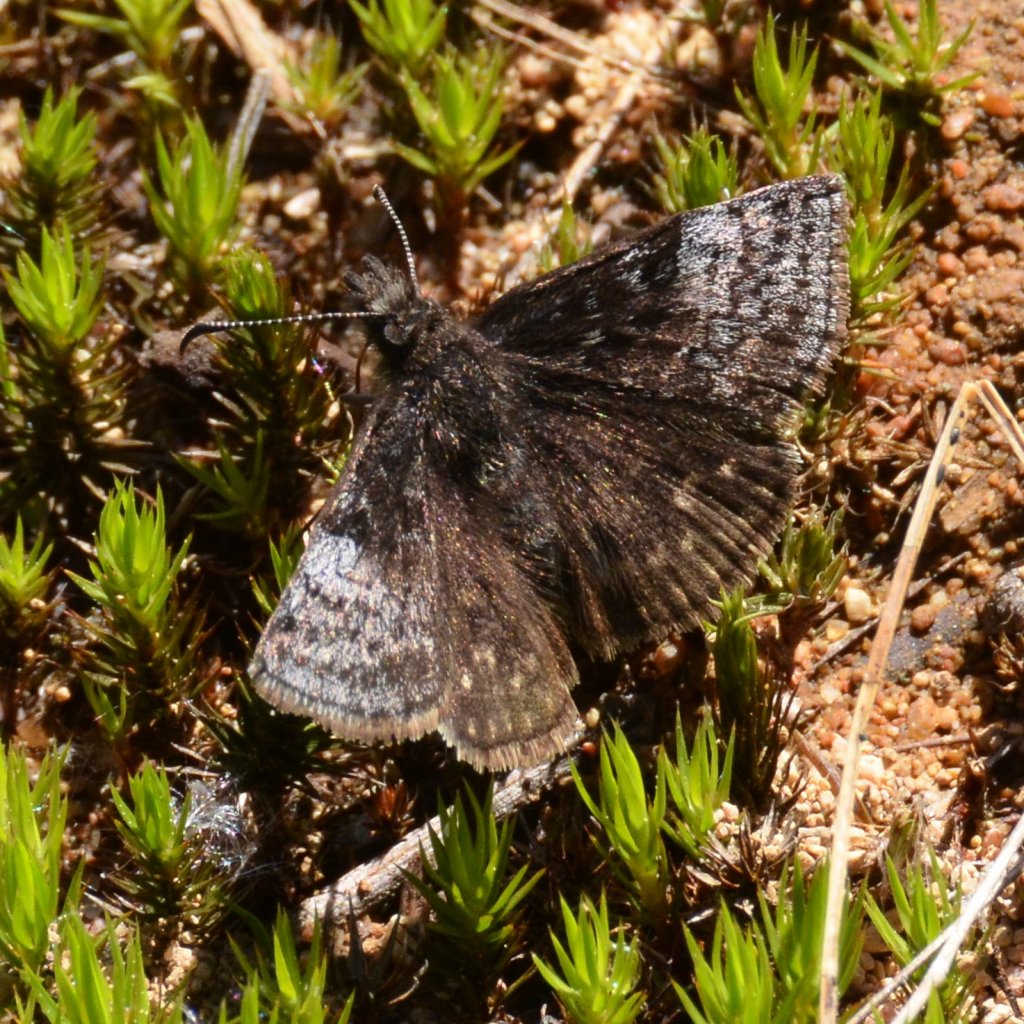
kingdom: Animalia
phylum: Arthropoda
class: Insecta
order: Lepidoptera
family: Hesperiidae
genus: Erynnis
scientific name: Erynnis icelus
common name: Dreamy Duskywing
